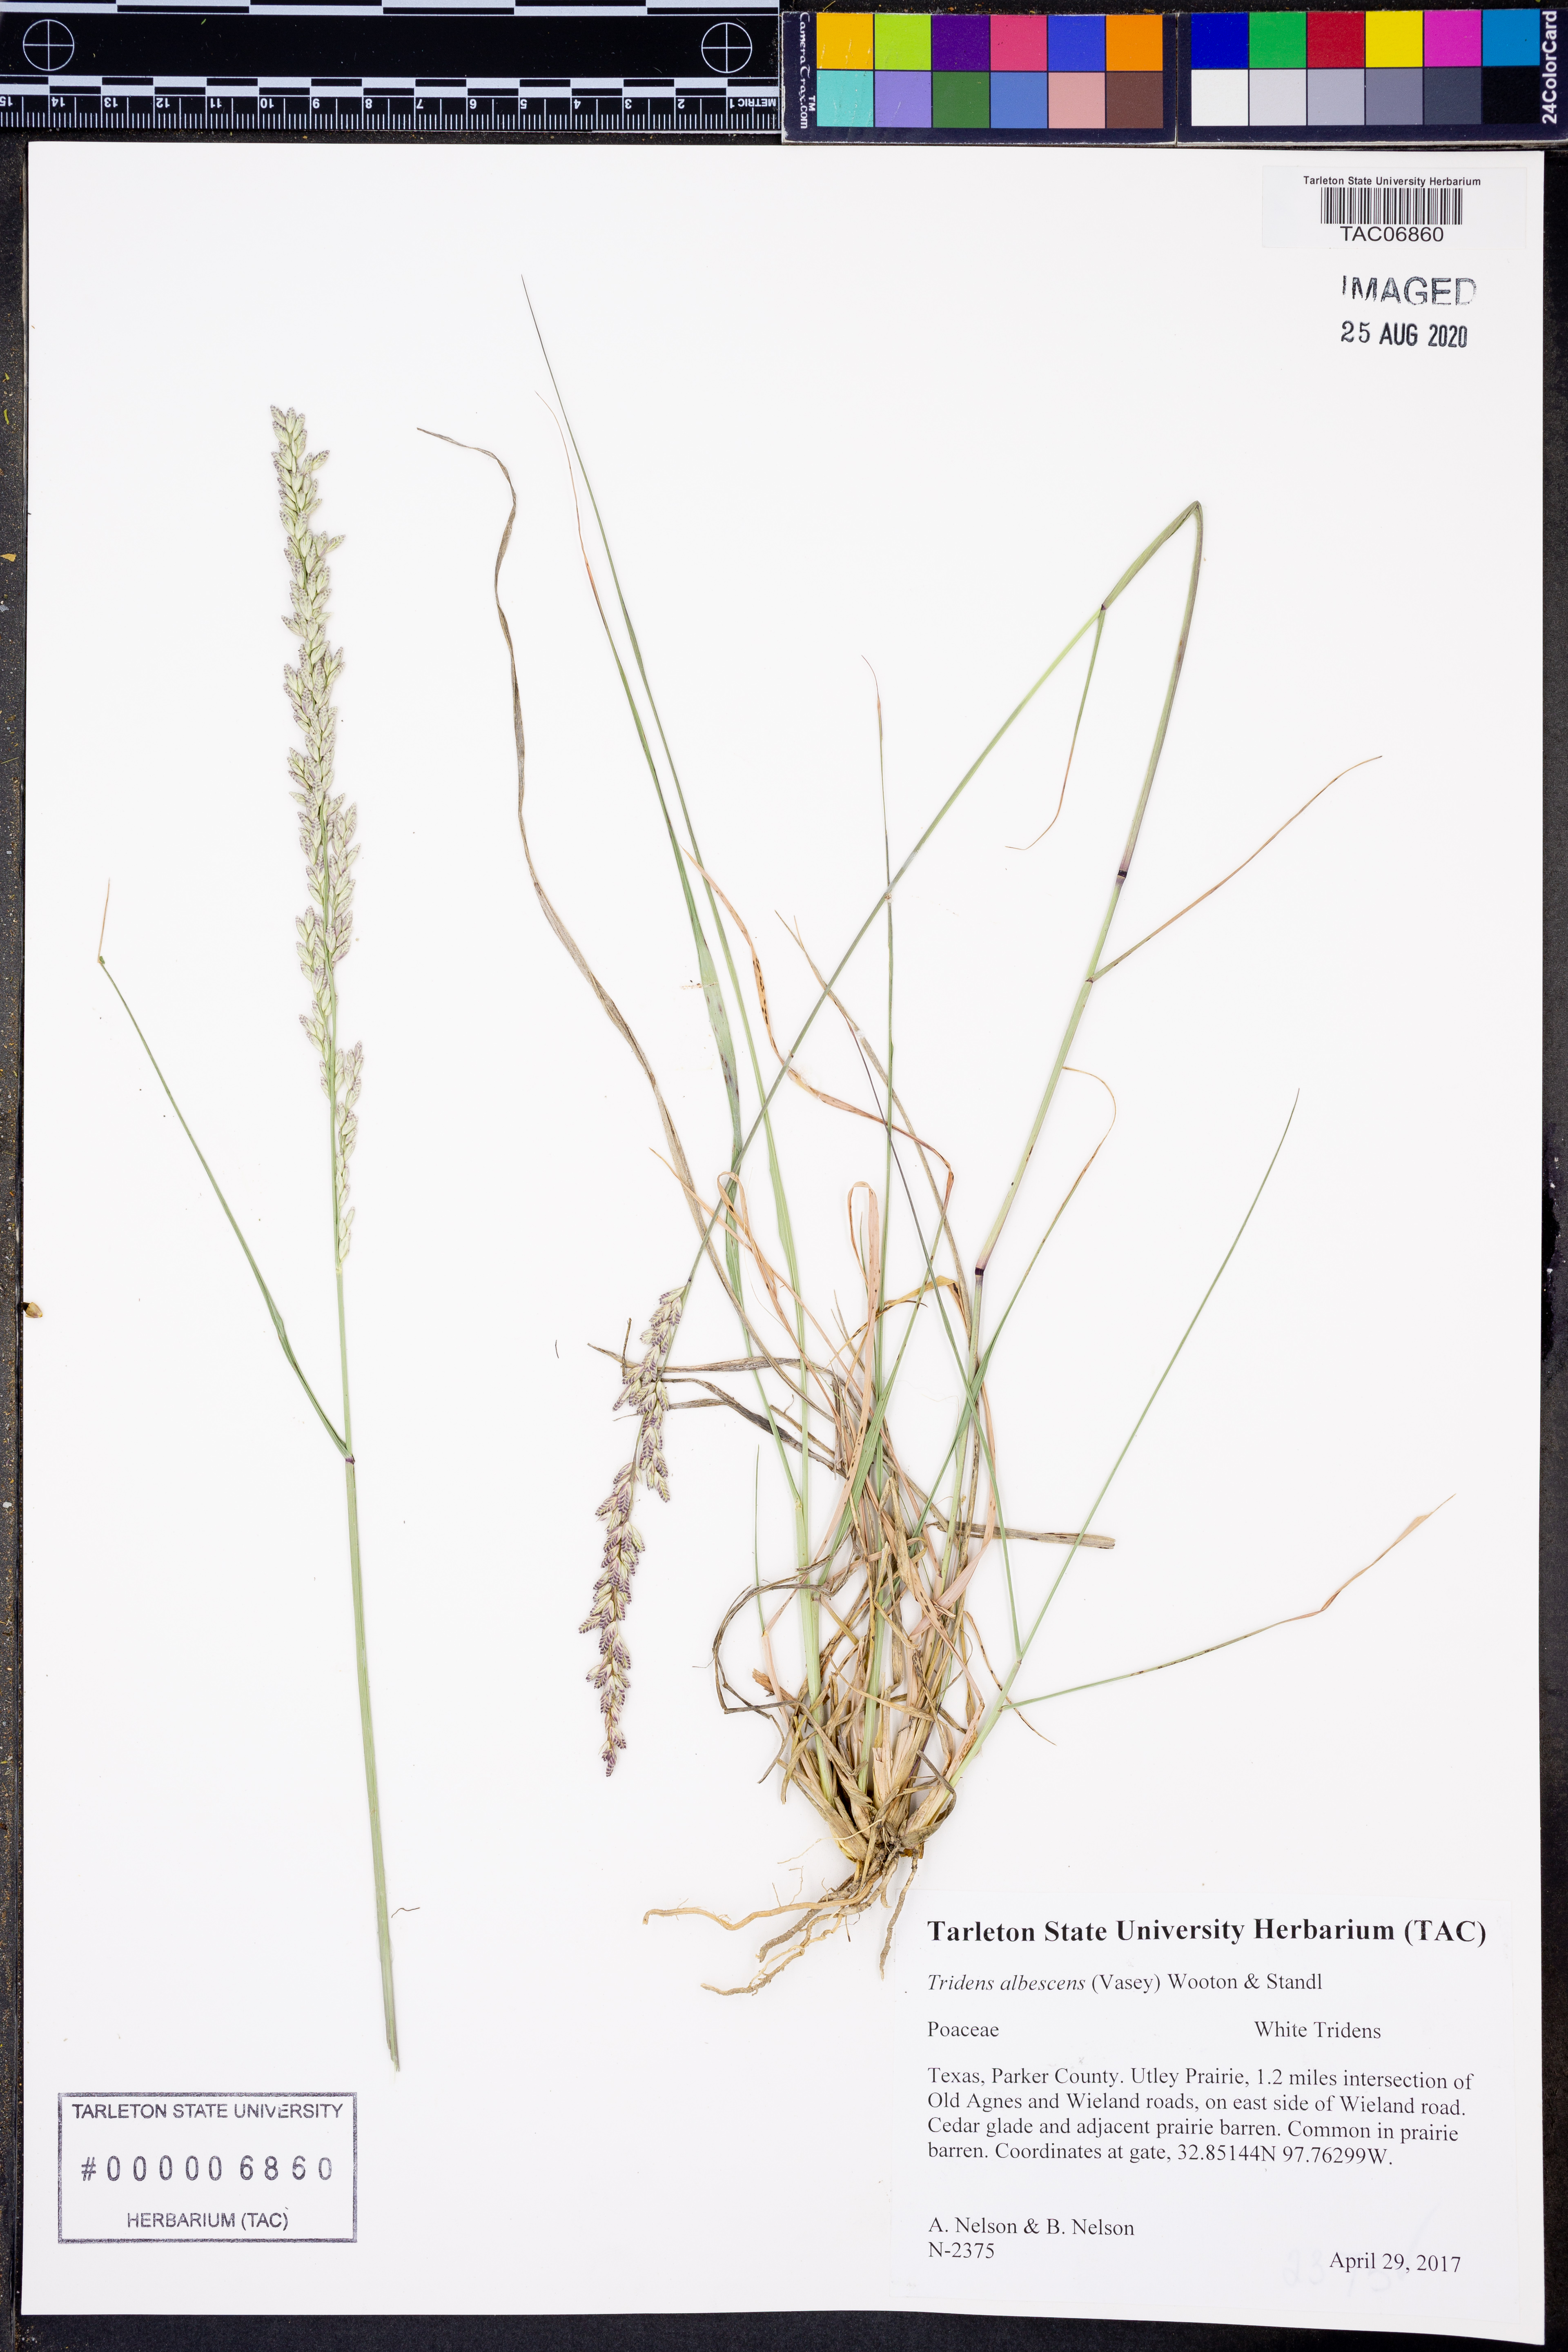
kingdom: Plantae
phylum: Tracheophyta
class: Liliopsida
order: Poales
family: Poaceae
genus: Tridens
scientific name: Tridens albescens
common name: White tridens
